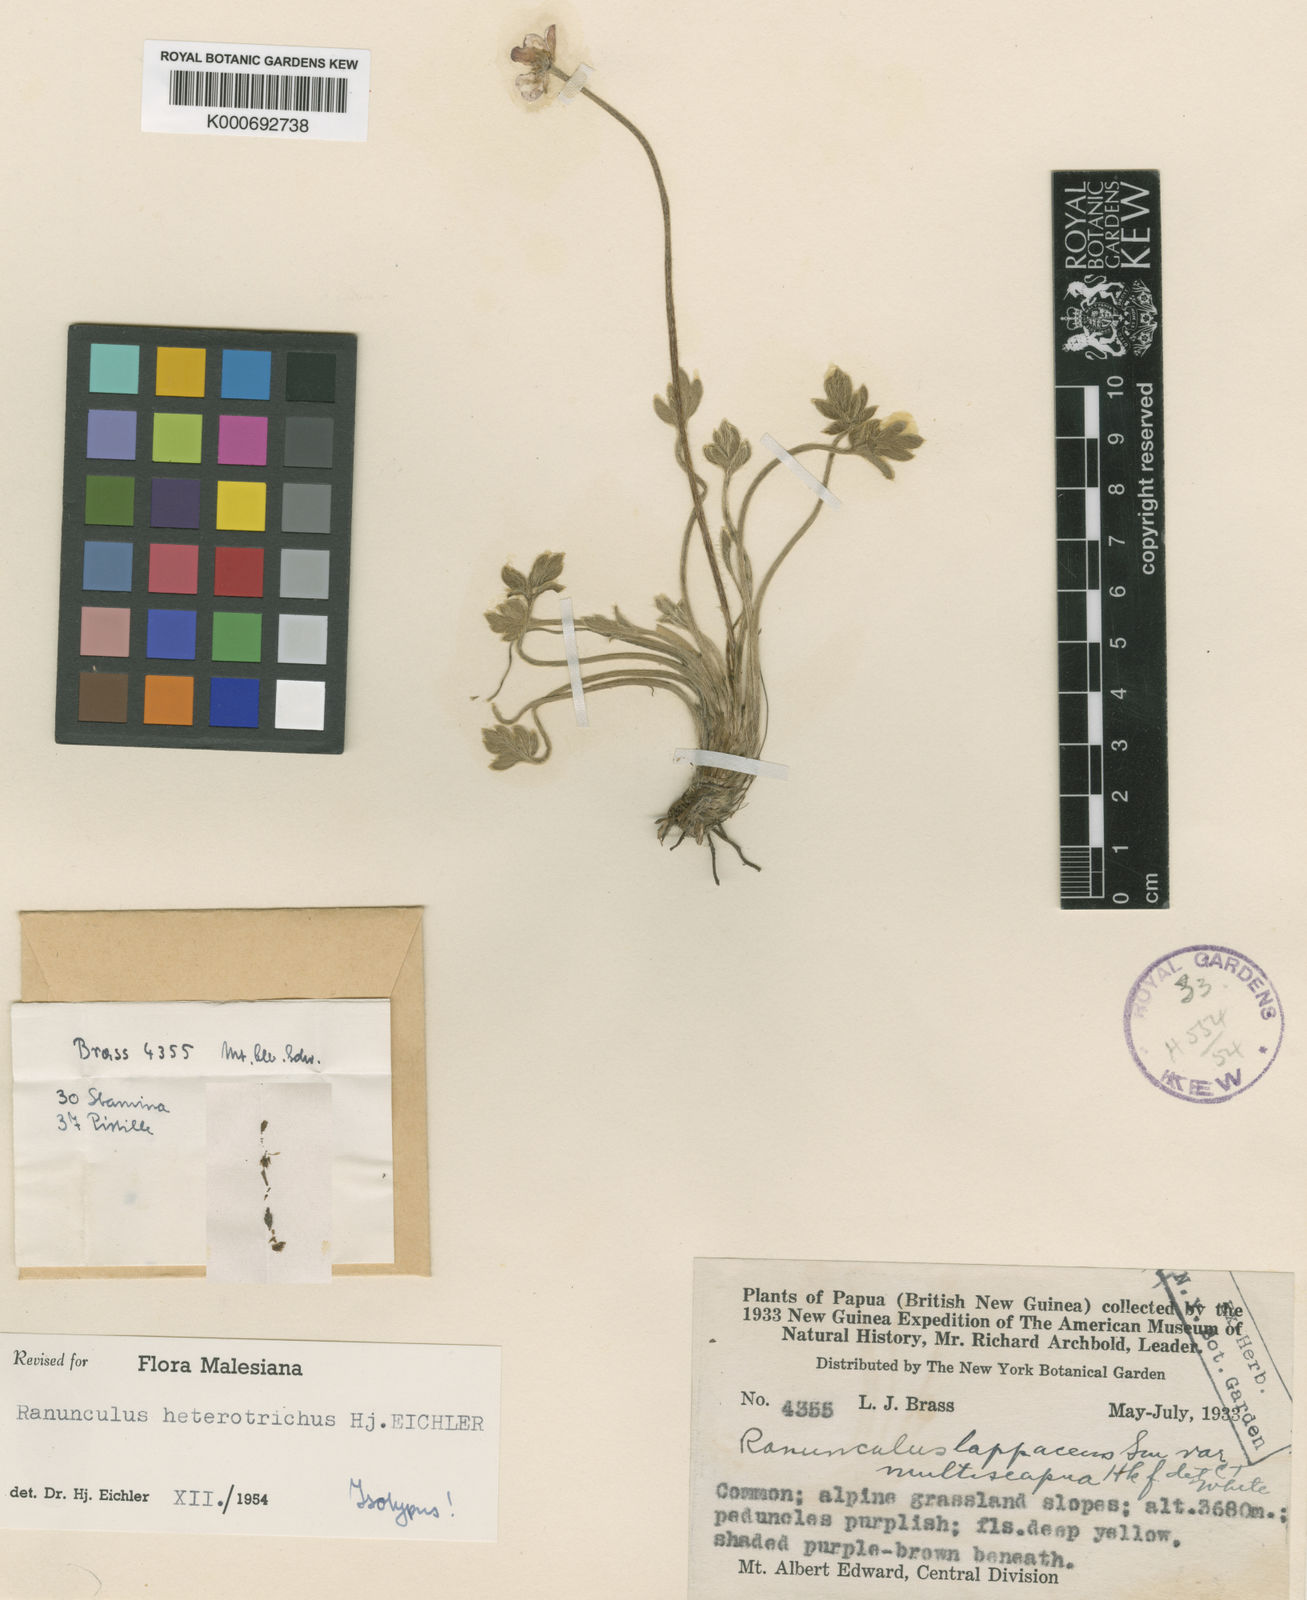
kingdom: Plantae
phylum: Tracheophyta
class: Magnoliopsida
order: Ranunculales
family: Ranunculaceae
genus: Ranunculus
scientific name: Ranunculus heterotrichus
